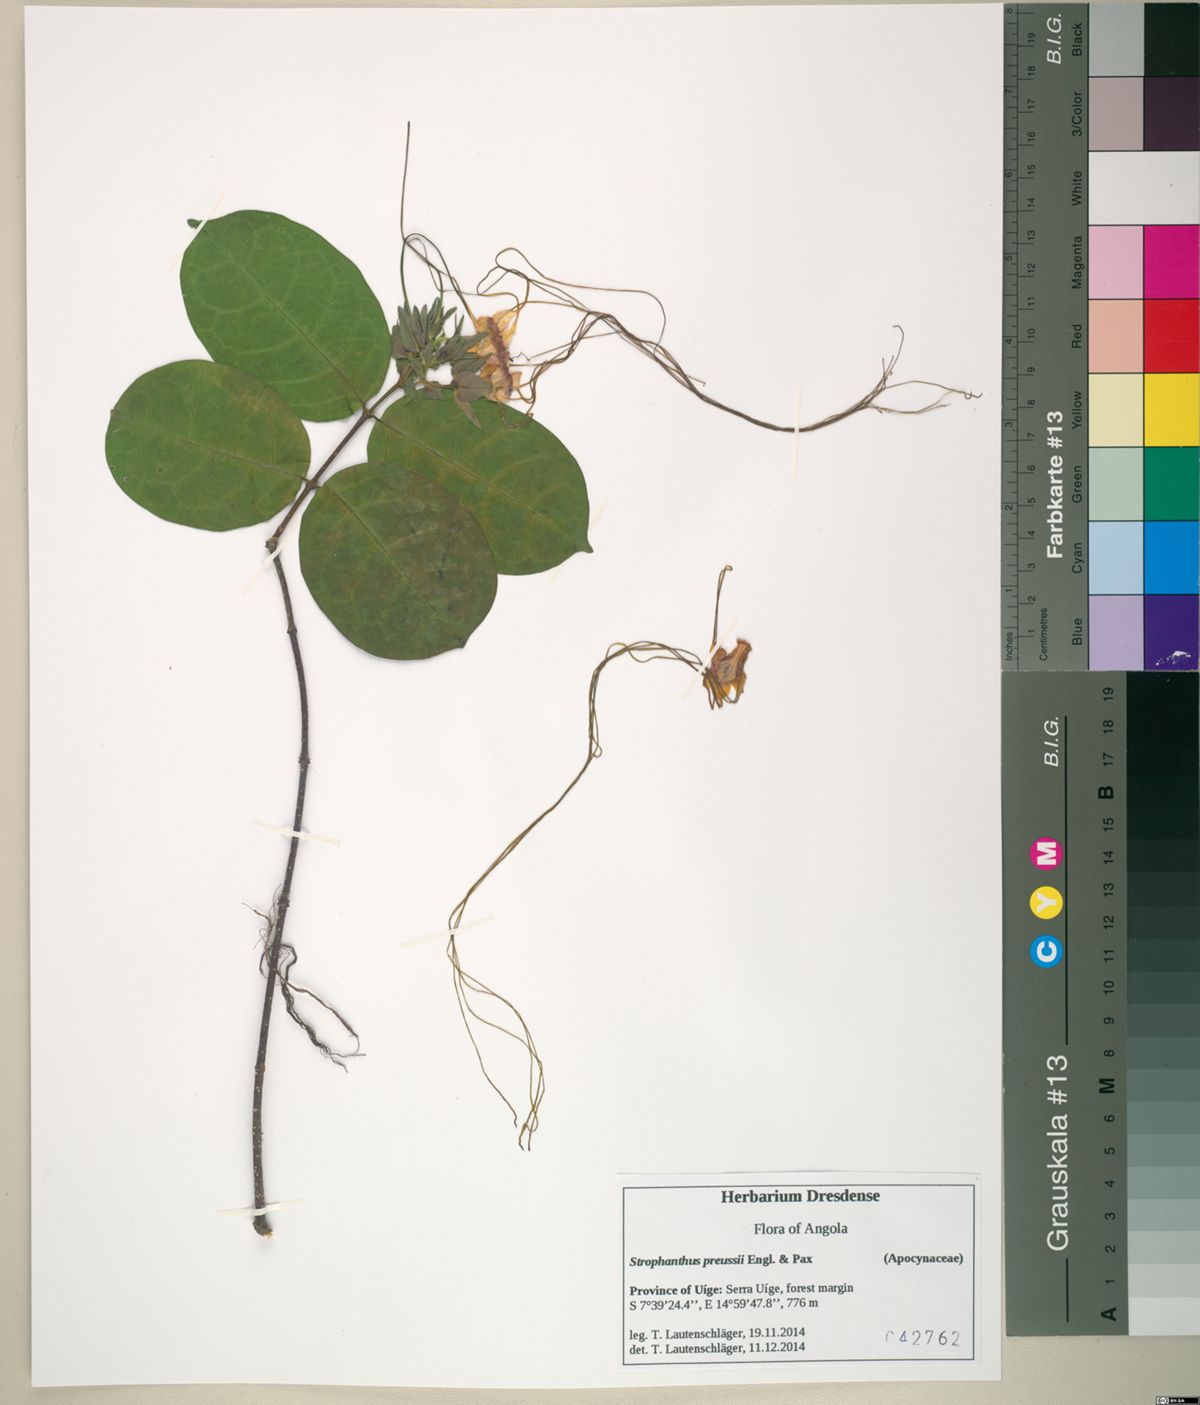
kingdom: Plantae
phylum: Tracheophyta
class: Magnoliopsida
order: Gentianales
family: Apocynaceae
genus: Strophanthus
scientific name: Strophanthus preussii
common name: Medisa-flower
